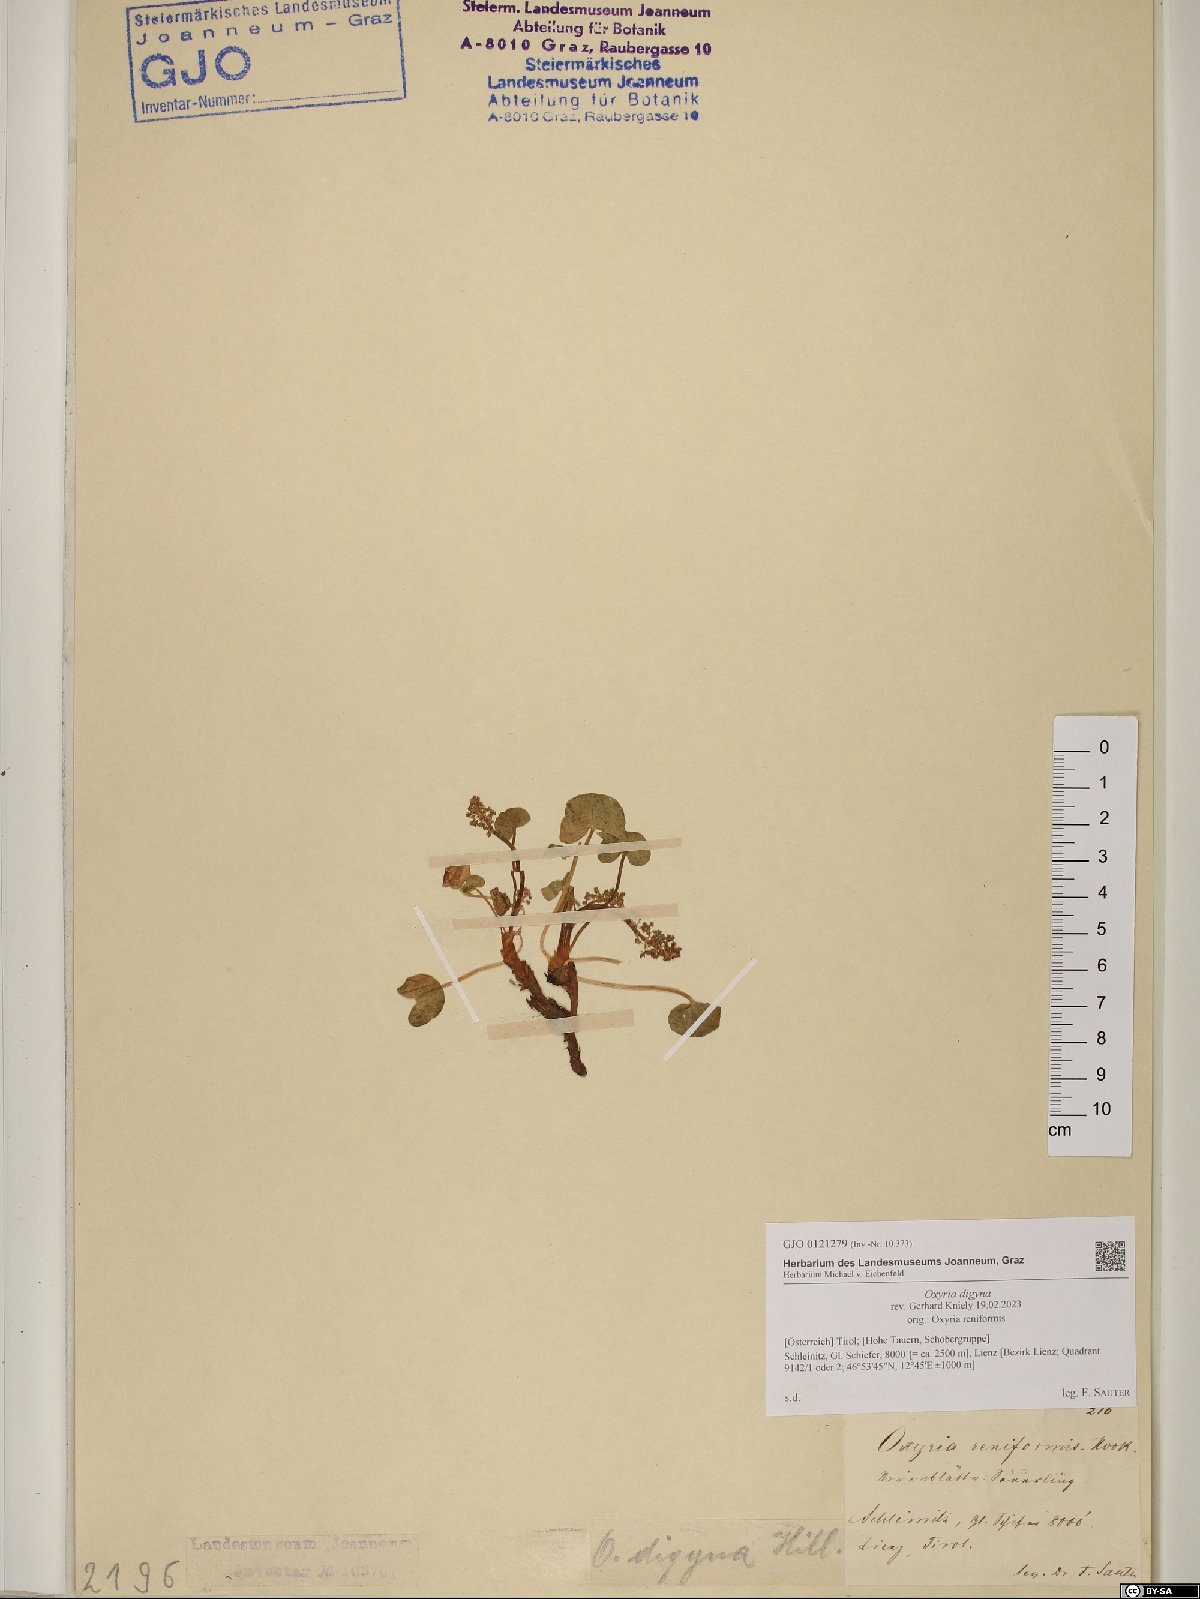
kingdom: Plantae
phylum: Tracheophyta
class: Magnoliopsida
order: Caryophyllales
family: Polygonaceae
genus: Oxyria
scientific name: Oxyria digyna
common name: Alpine mountain-sorrel
